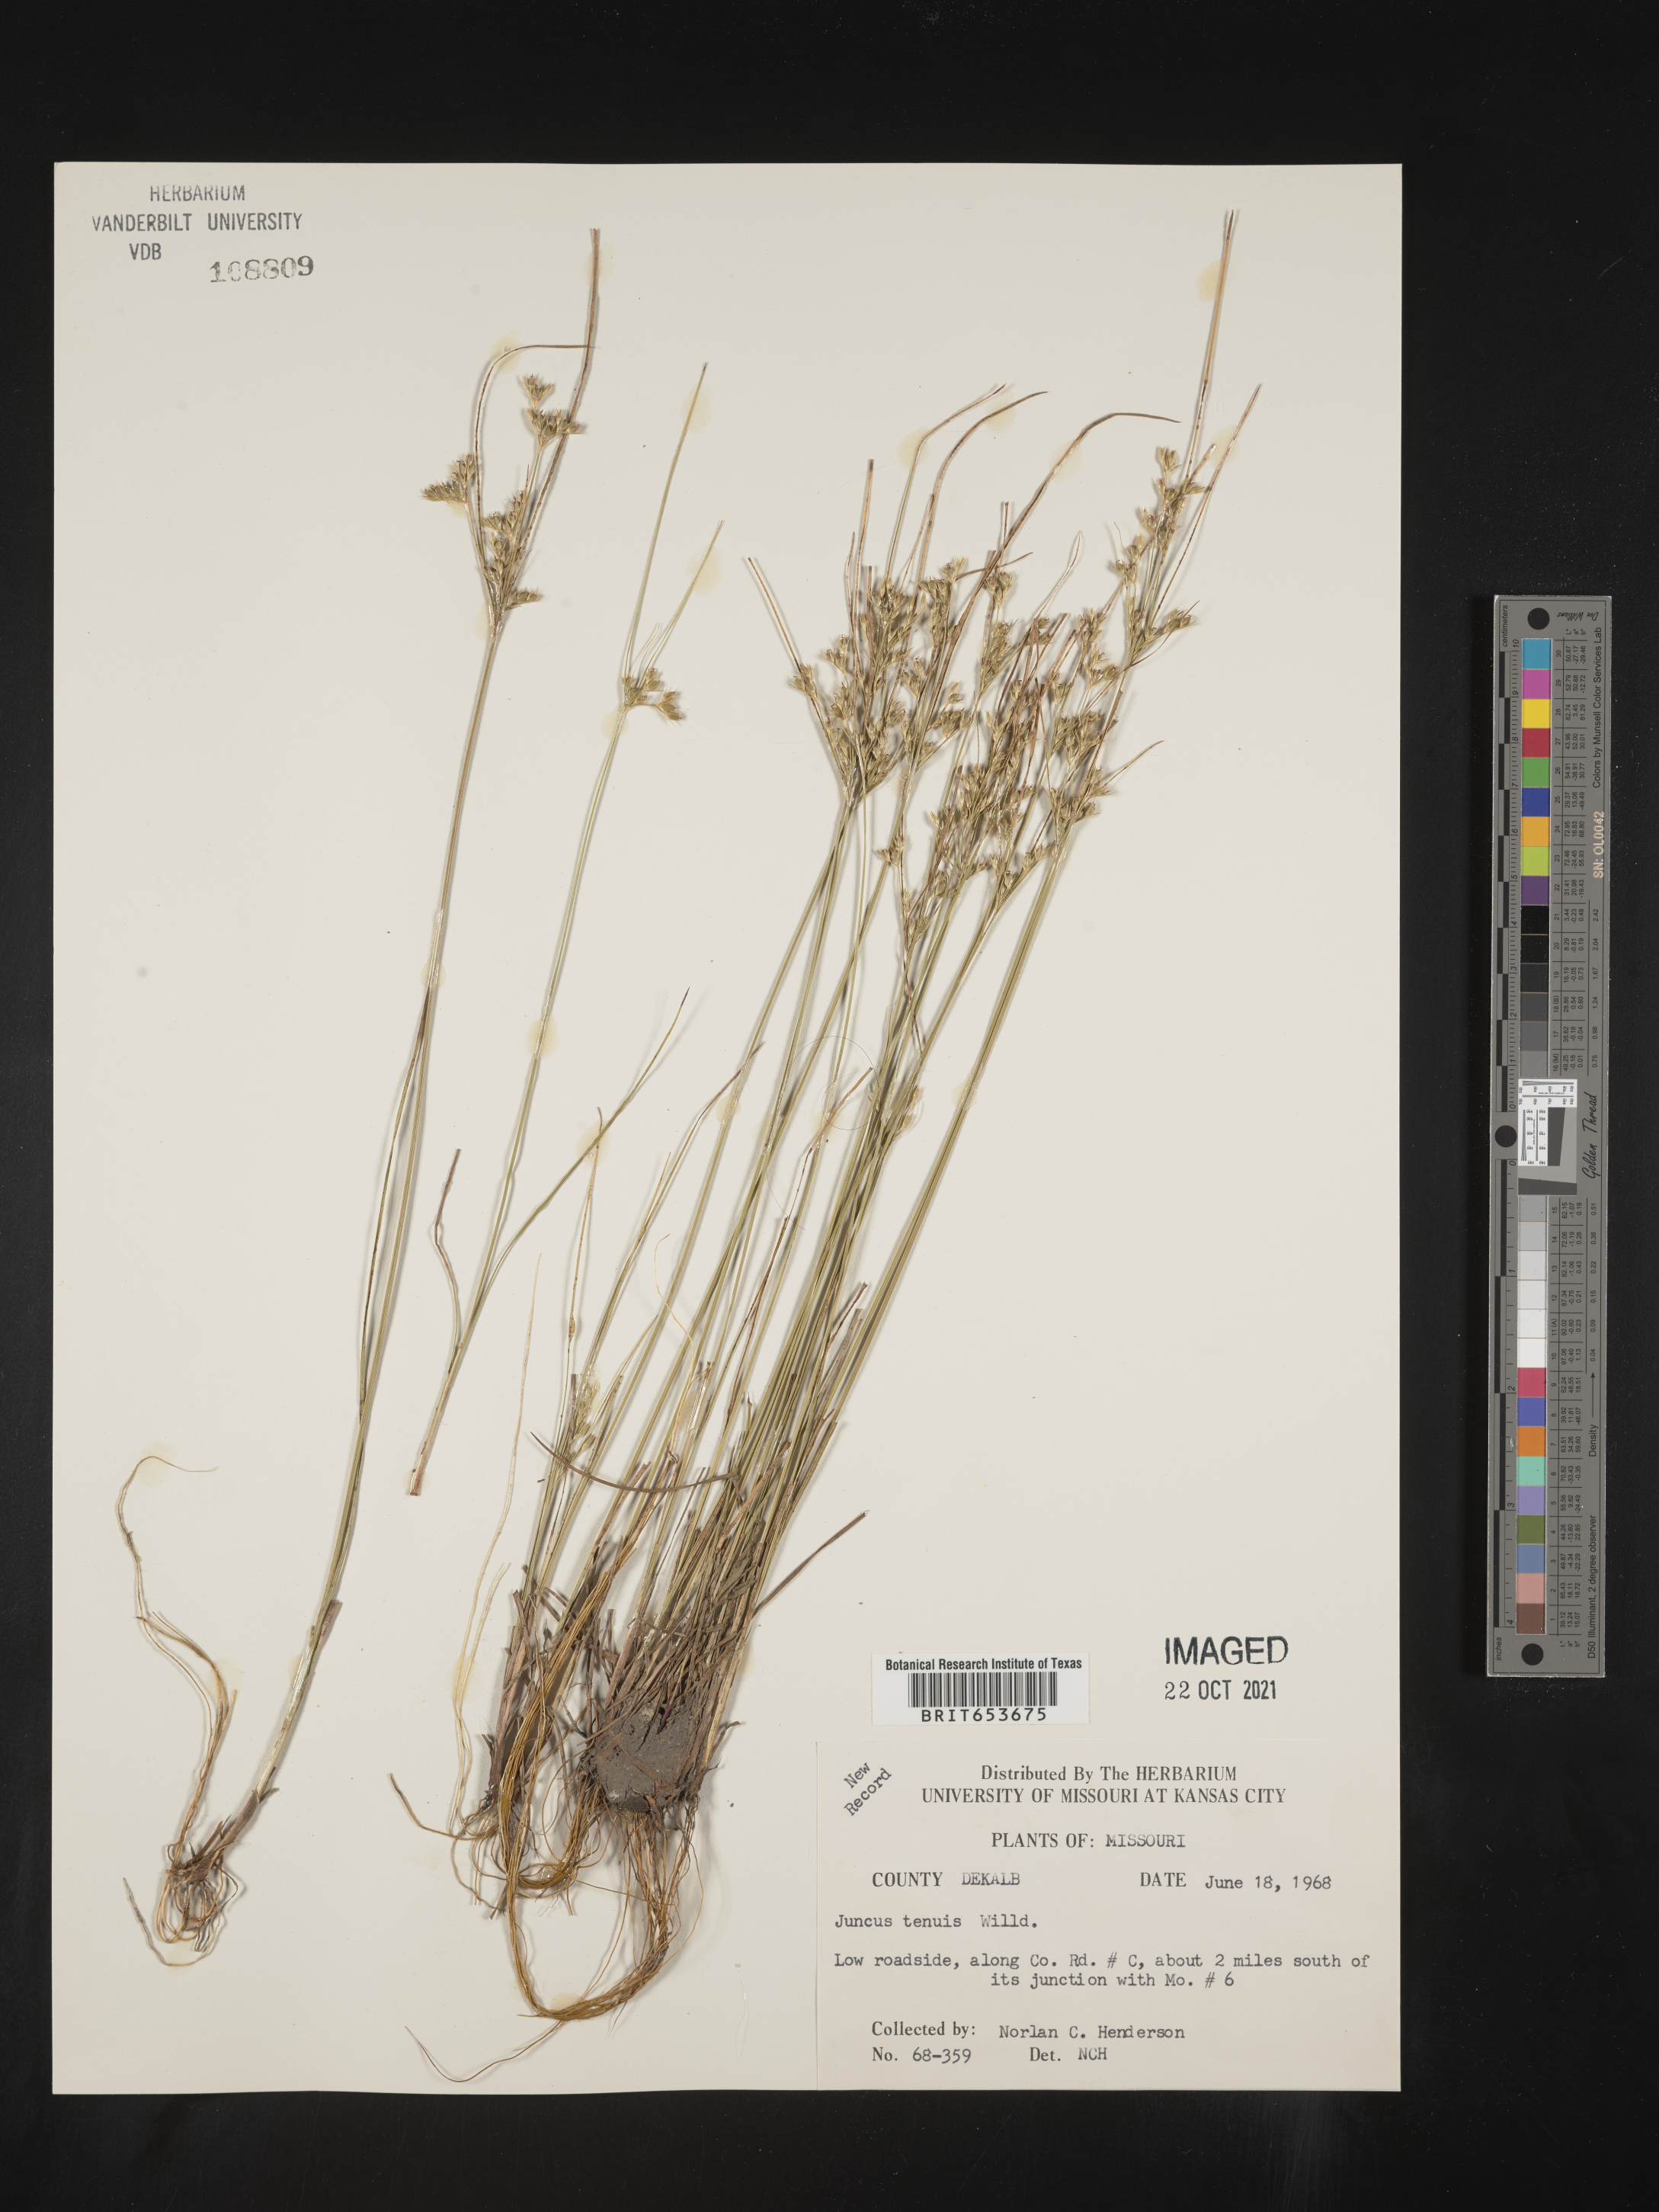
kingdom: Plantae
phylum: Tracheophyta
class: Liliopsida
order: Poales
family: Juncaceae
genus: Juncus
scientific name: Juncus tenuis
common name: Slender rush
